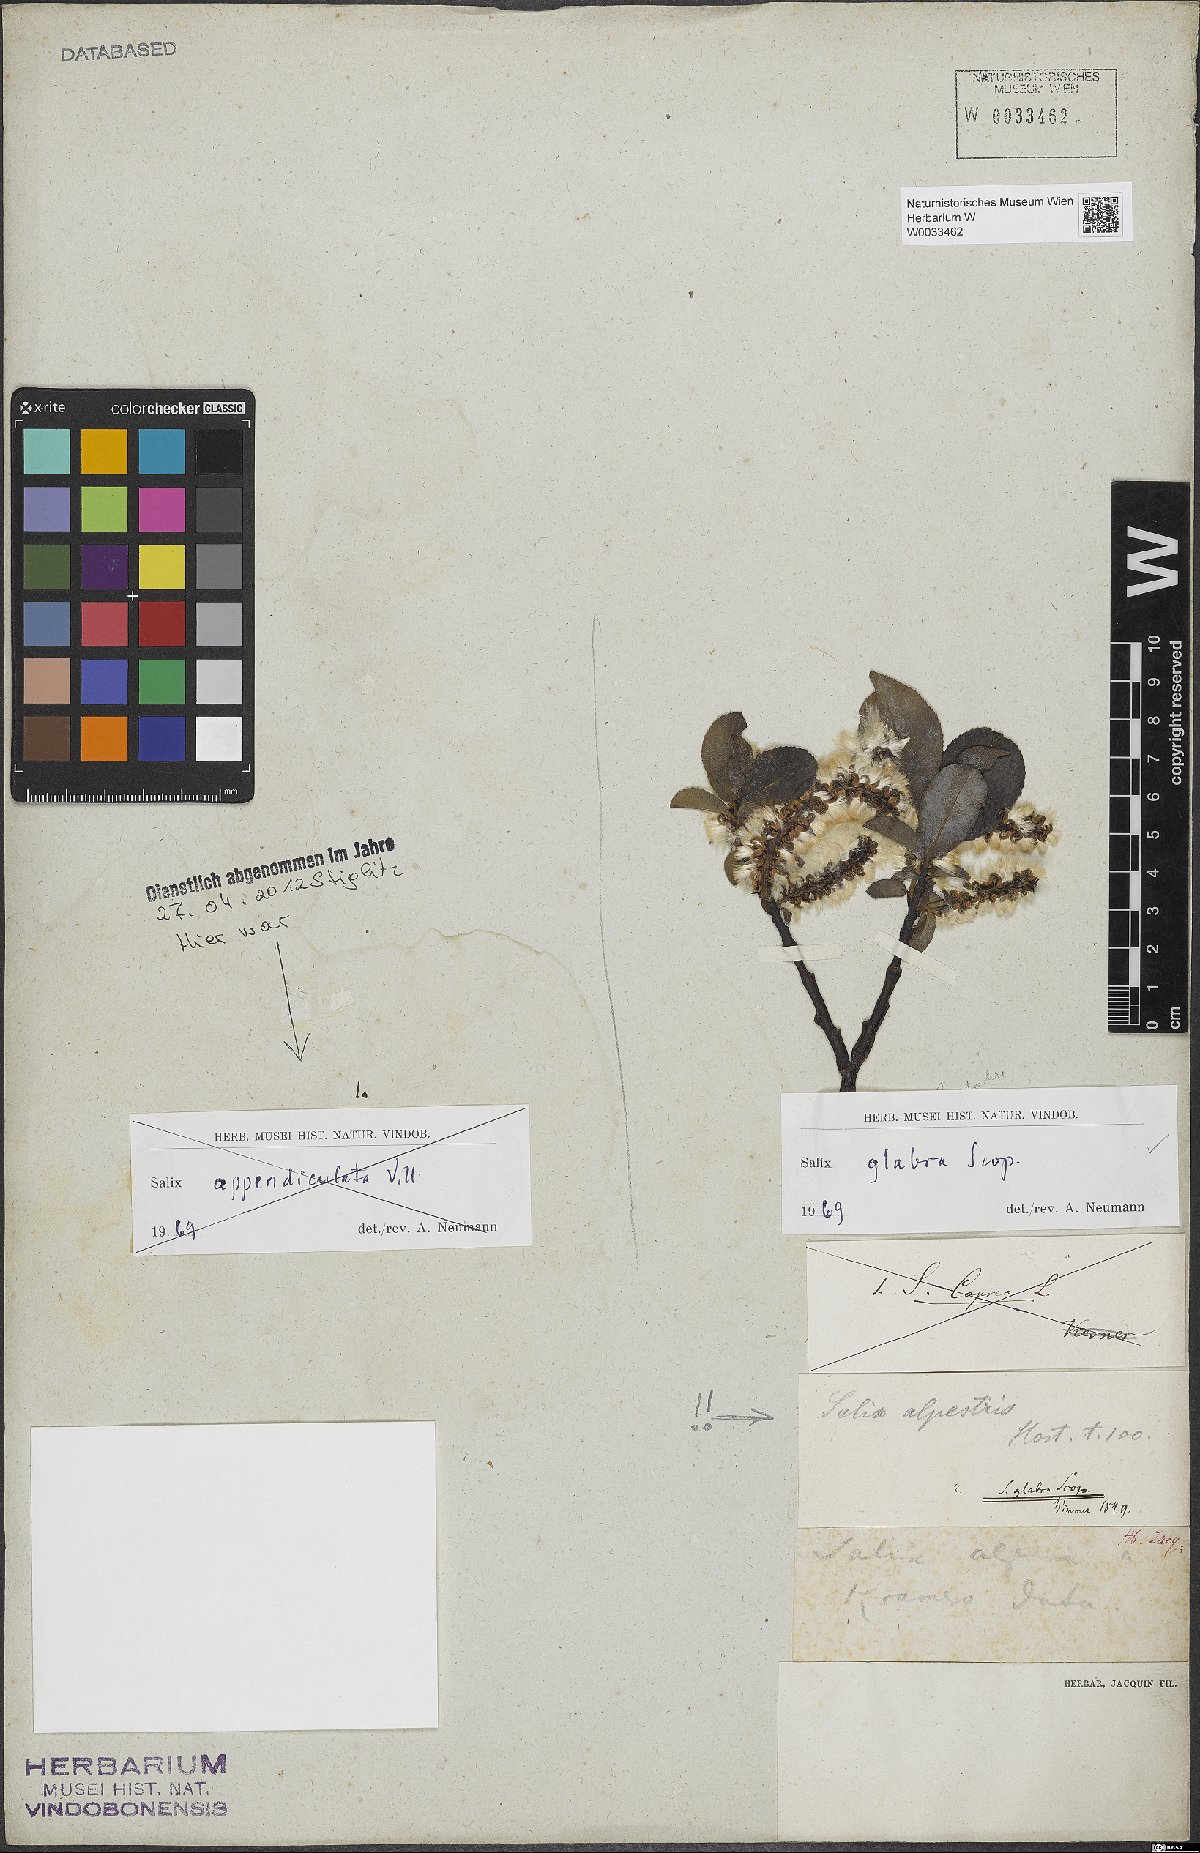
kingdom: Plantae
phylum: Tracheophyta
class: Magnoliopsida
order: Malpighiales
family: Salicaceae
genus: Salix
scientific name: Salix glabra
